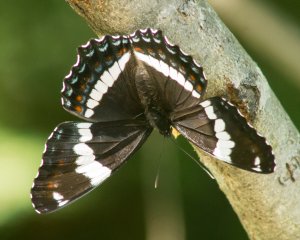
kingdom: Animalia
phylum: Arthropoda
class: Insecta
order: Lepidoptera
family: Nymphalidae
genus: Limenitis
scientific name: Limenitis arthemis
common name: Red-spotted Admiral
